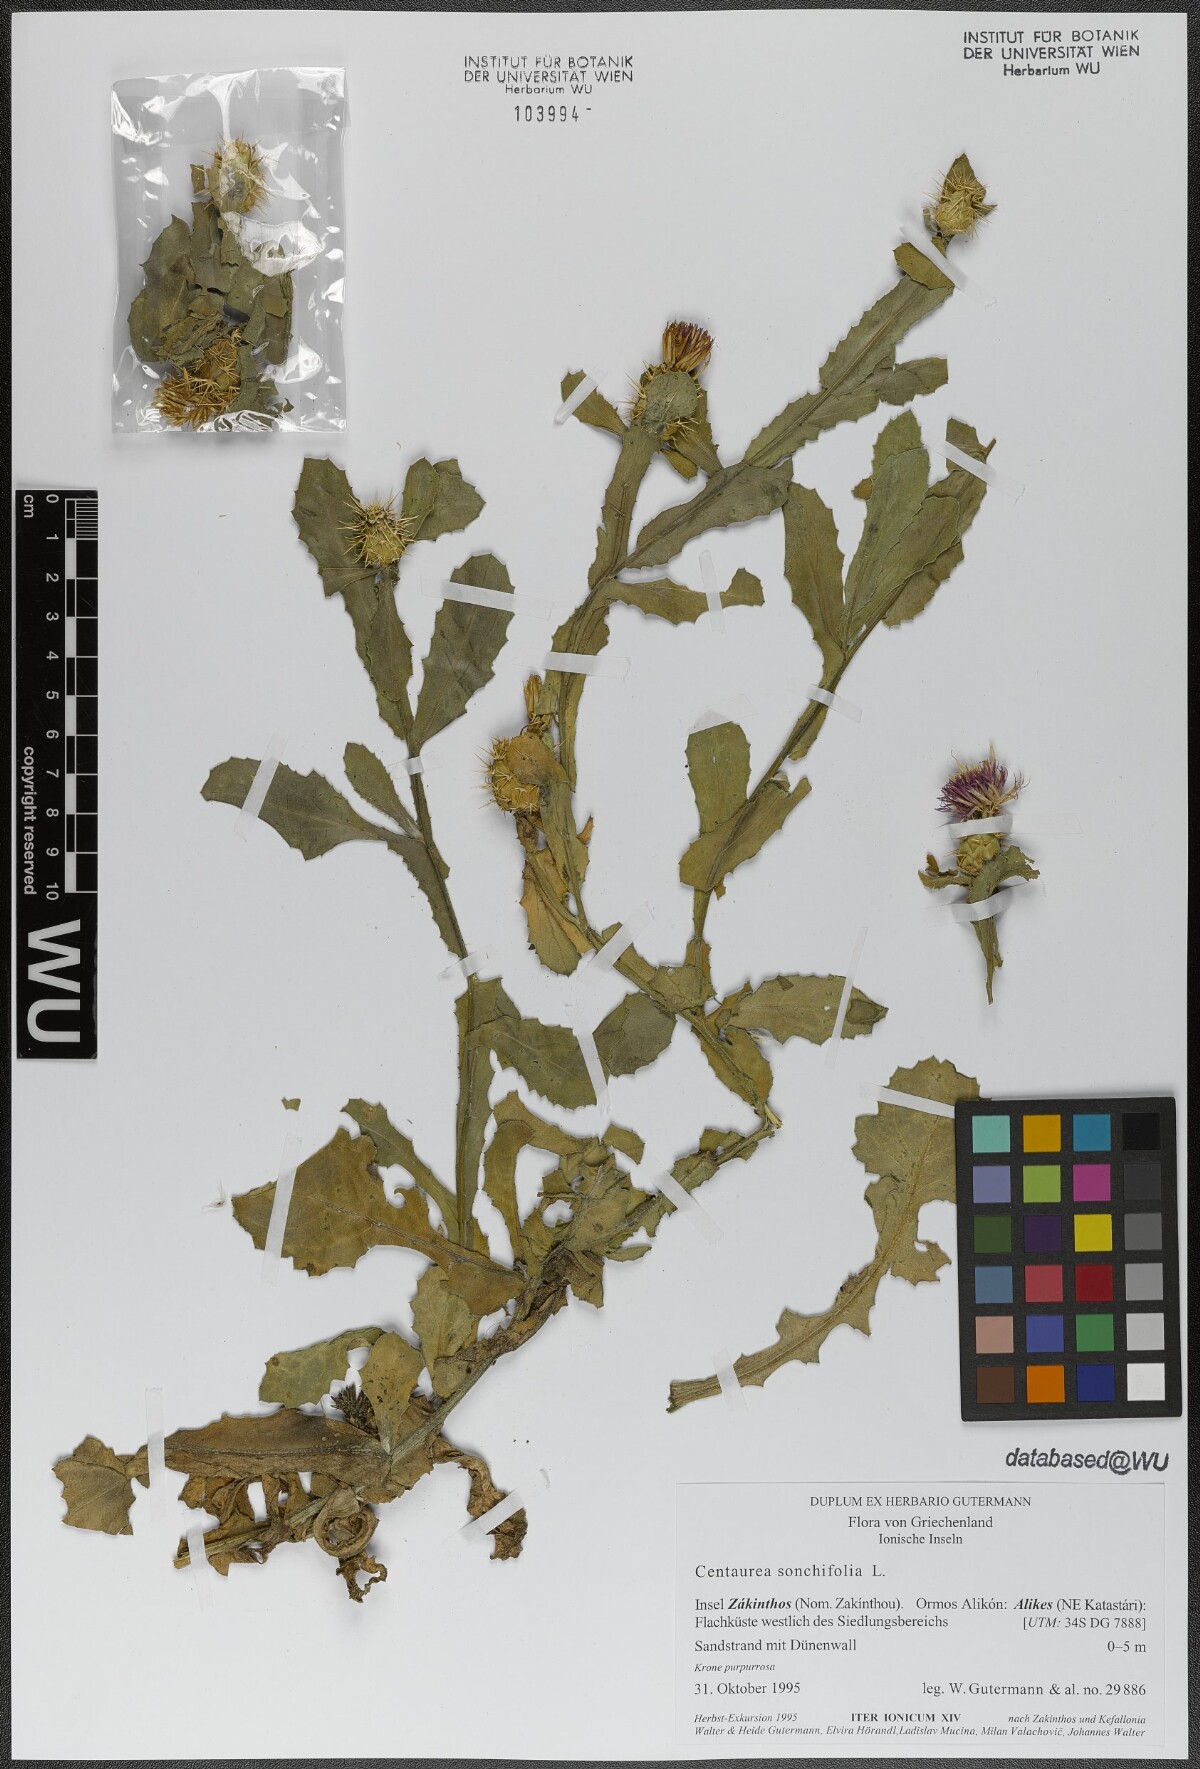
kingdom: Plantae
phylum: Tracheophyta
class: Magnoliopsida
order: Asterales
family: Asteraceae
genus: Centaurea
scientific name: Centaurea seridis
